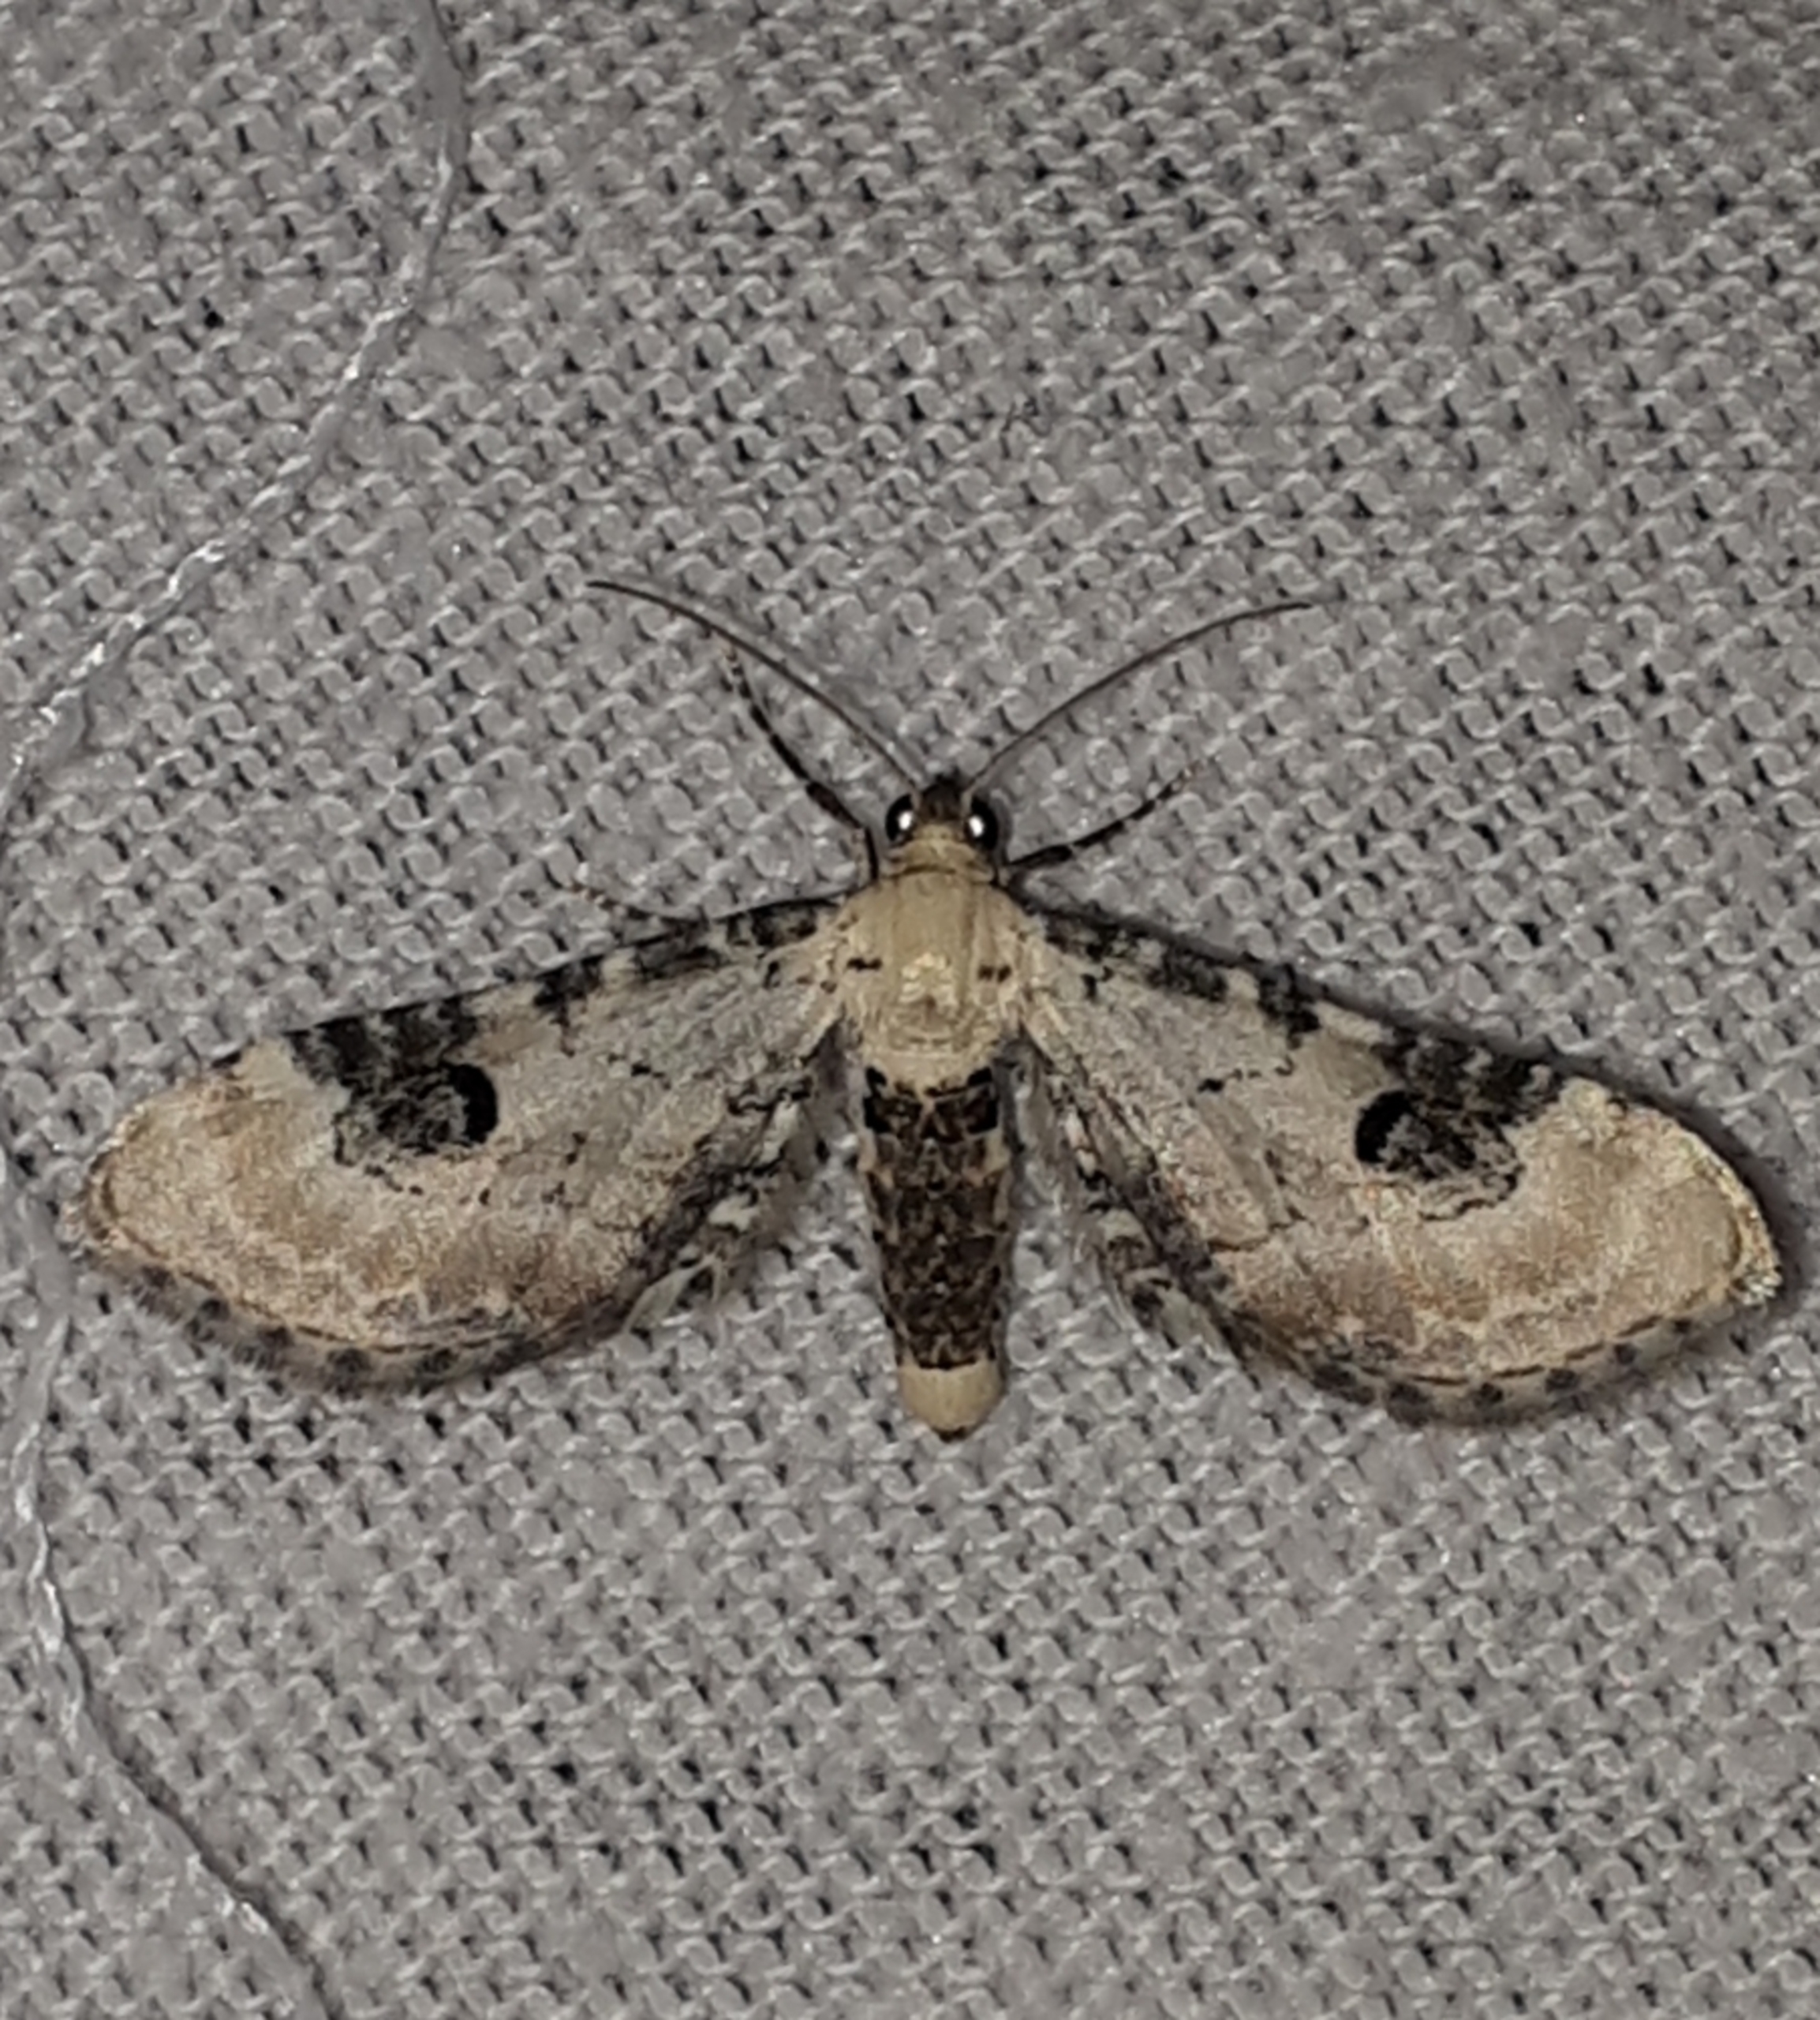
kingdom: Animalia
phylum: Arthropoda
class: Insecta
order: Lepidoptera
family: Geometridae
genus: Eupithecia
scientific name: Eupithecia centaureata
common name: Hvid dværgmåler
